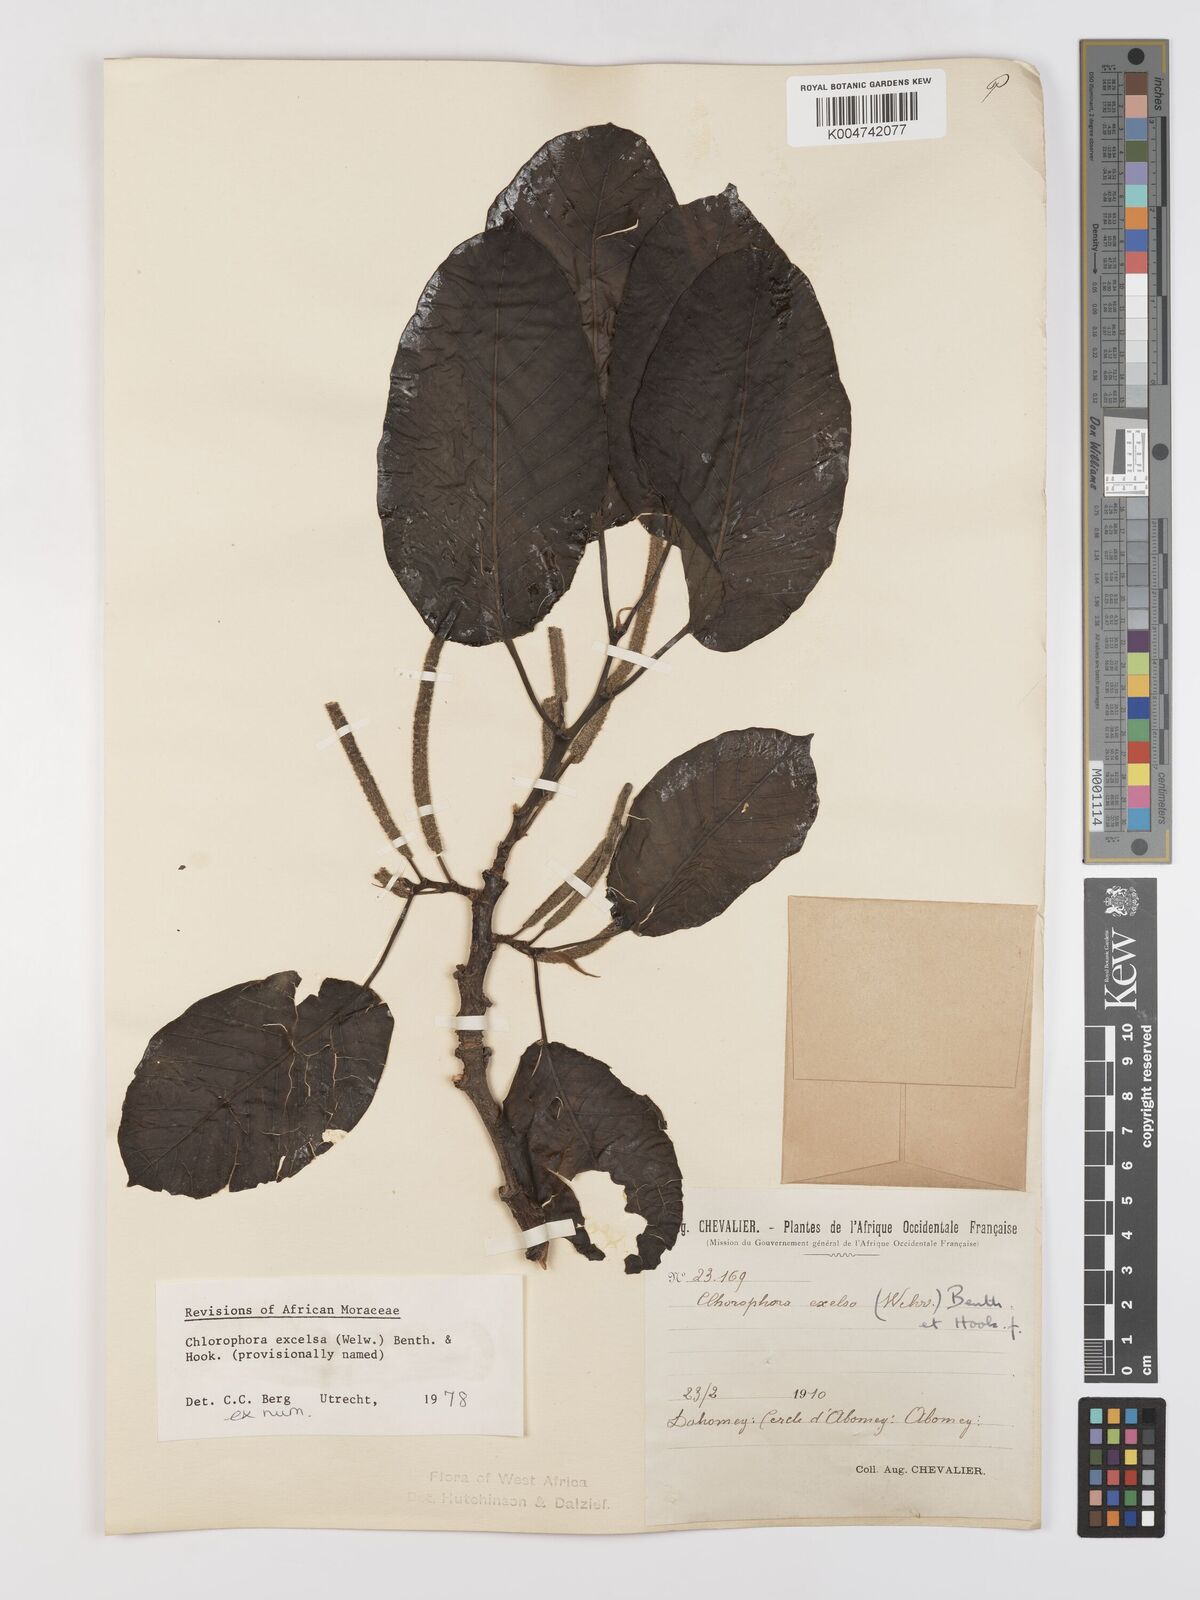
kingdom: Plantae
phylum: Tracheophyta
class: Magnoliopsida
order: Rosales
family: Moraceae
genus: Milicia
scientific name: Milicia excelsa
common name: African teak
